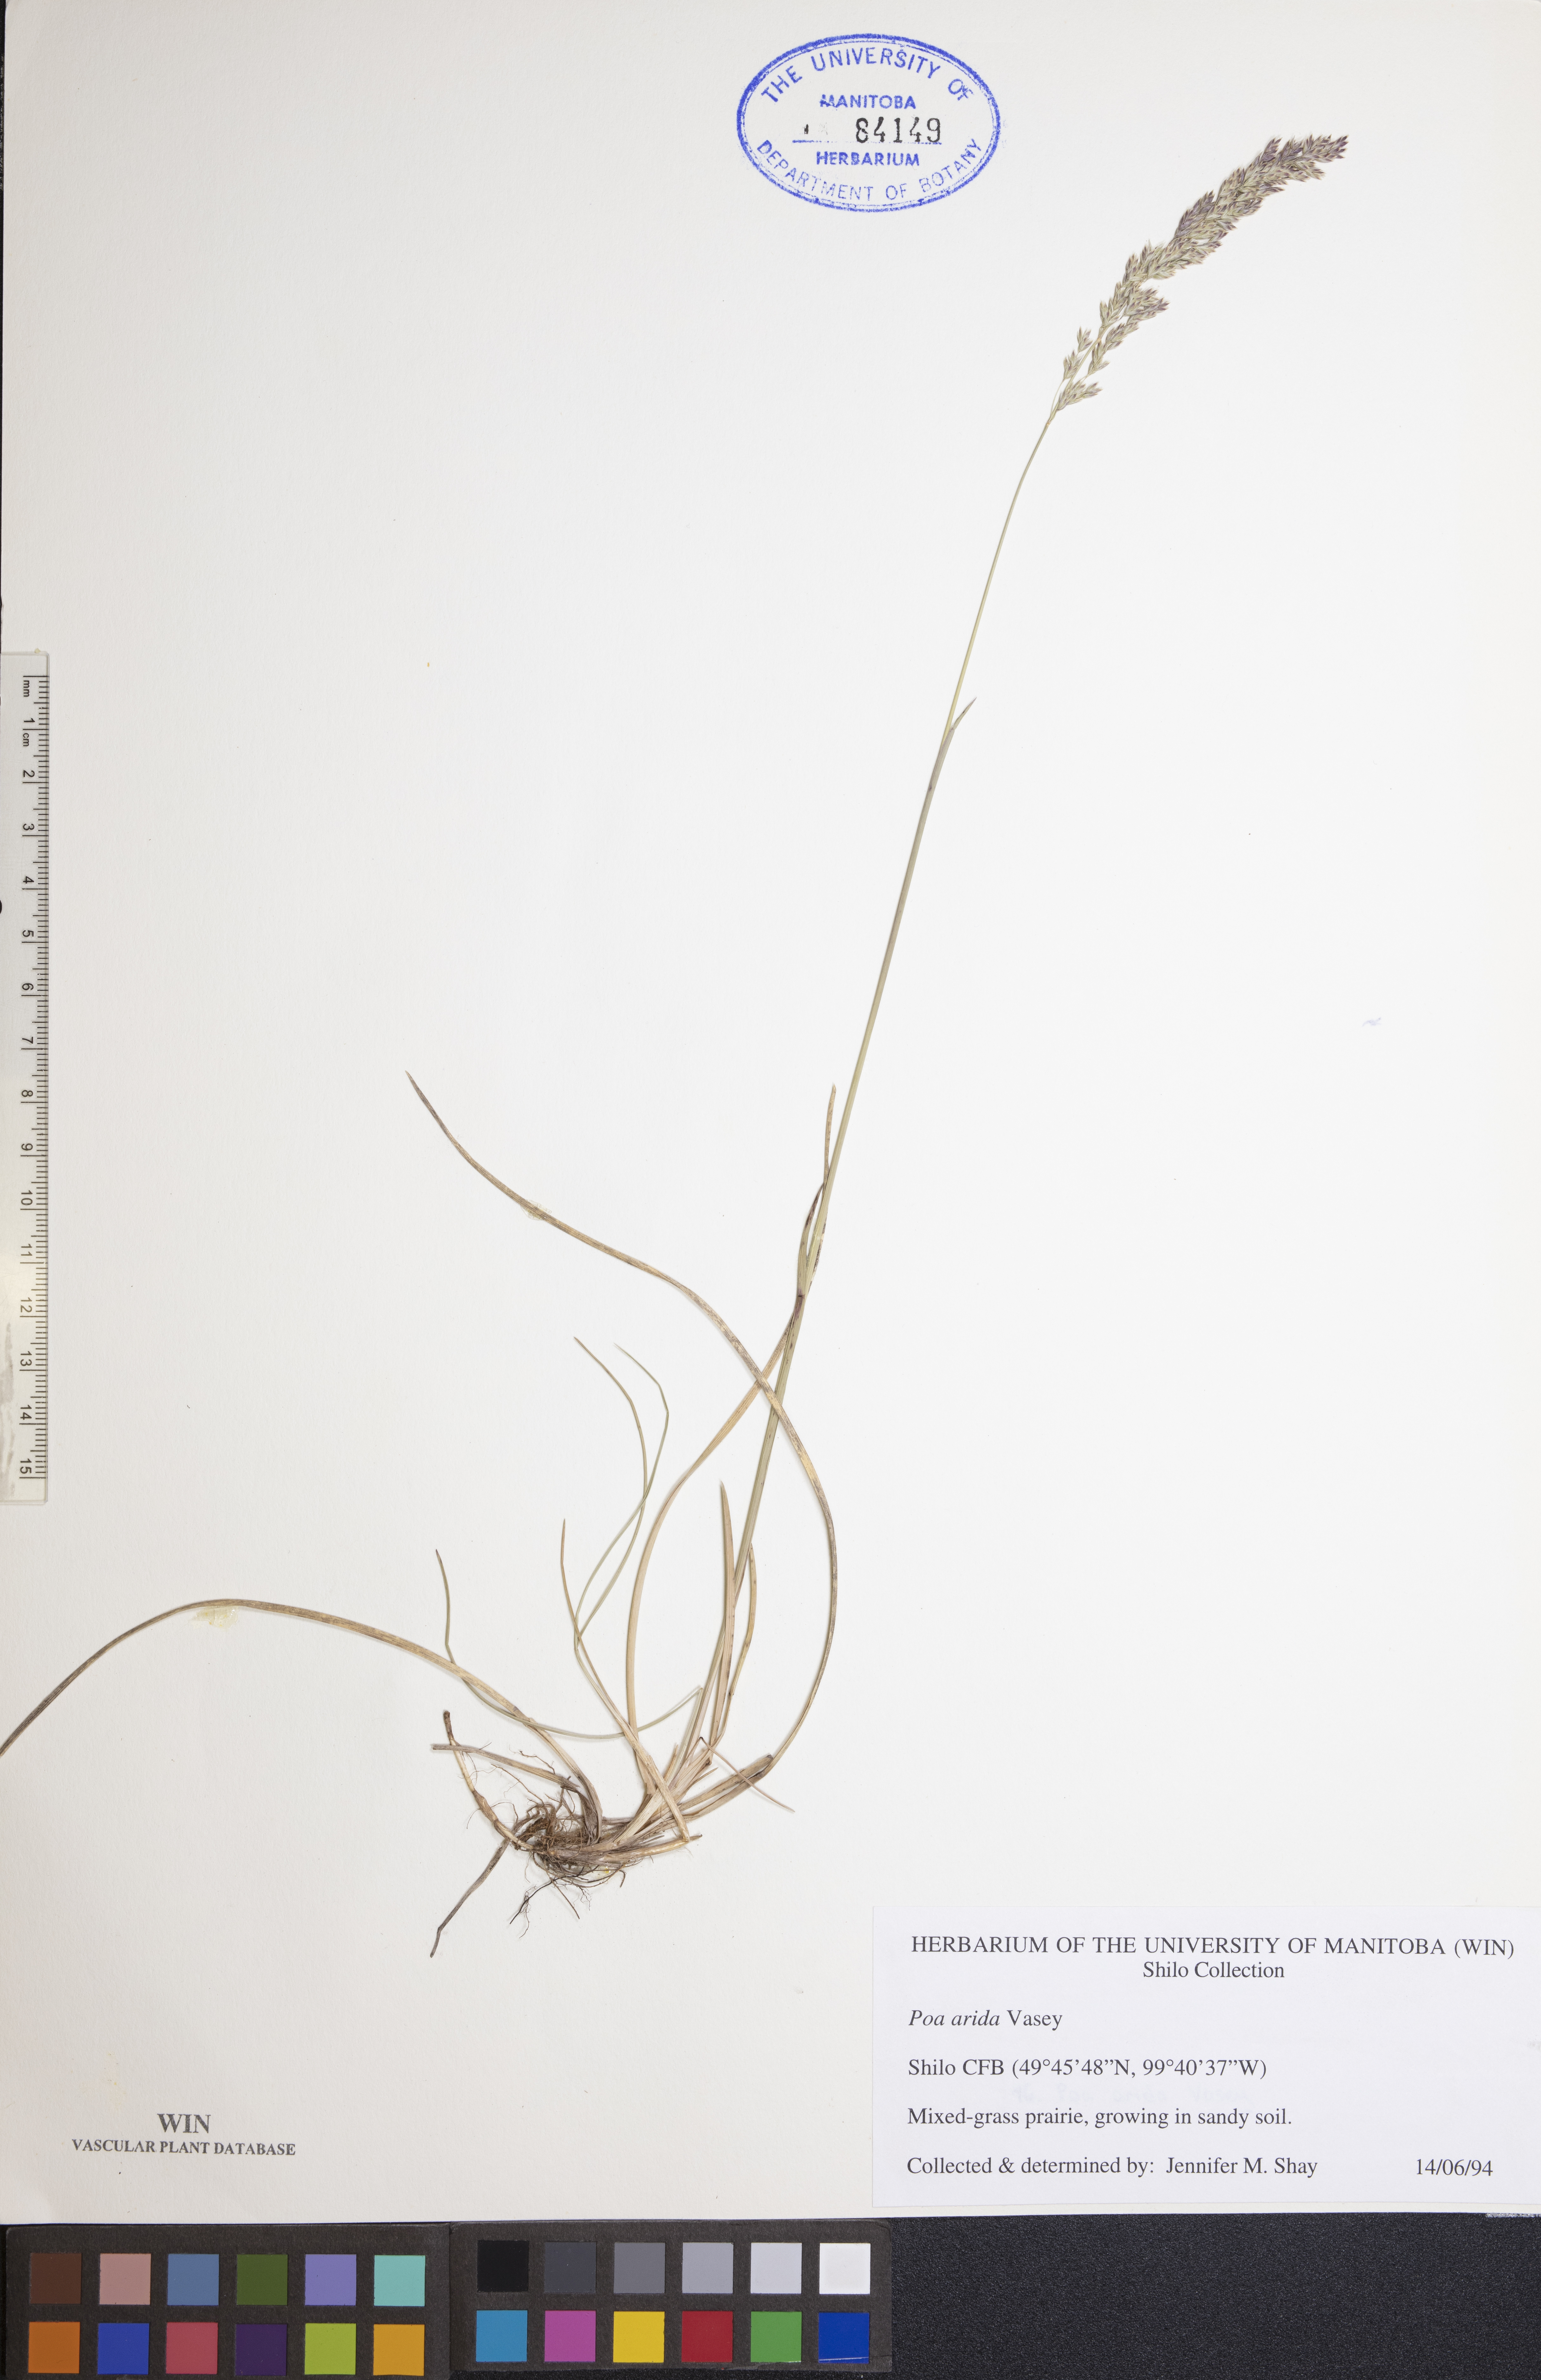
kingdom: Plantae
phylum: Tracheophyta
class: Liliopsida
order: Poales
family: Poaceae
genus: Poa
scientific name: Poa arida
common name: Plains bluegrass
